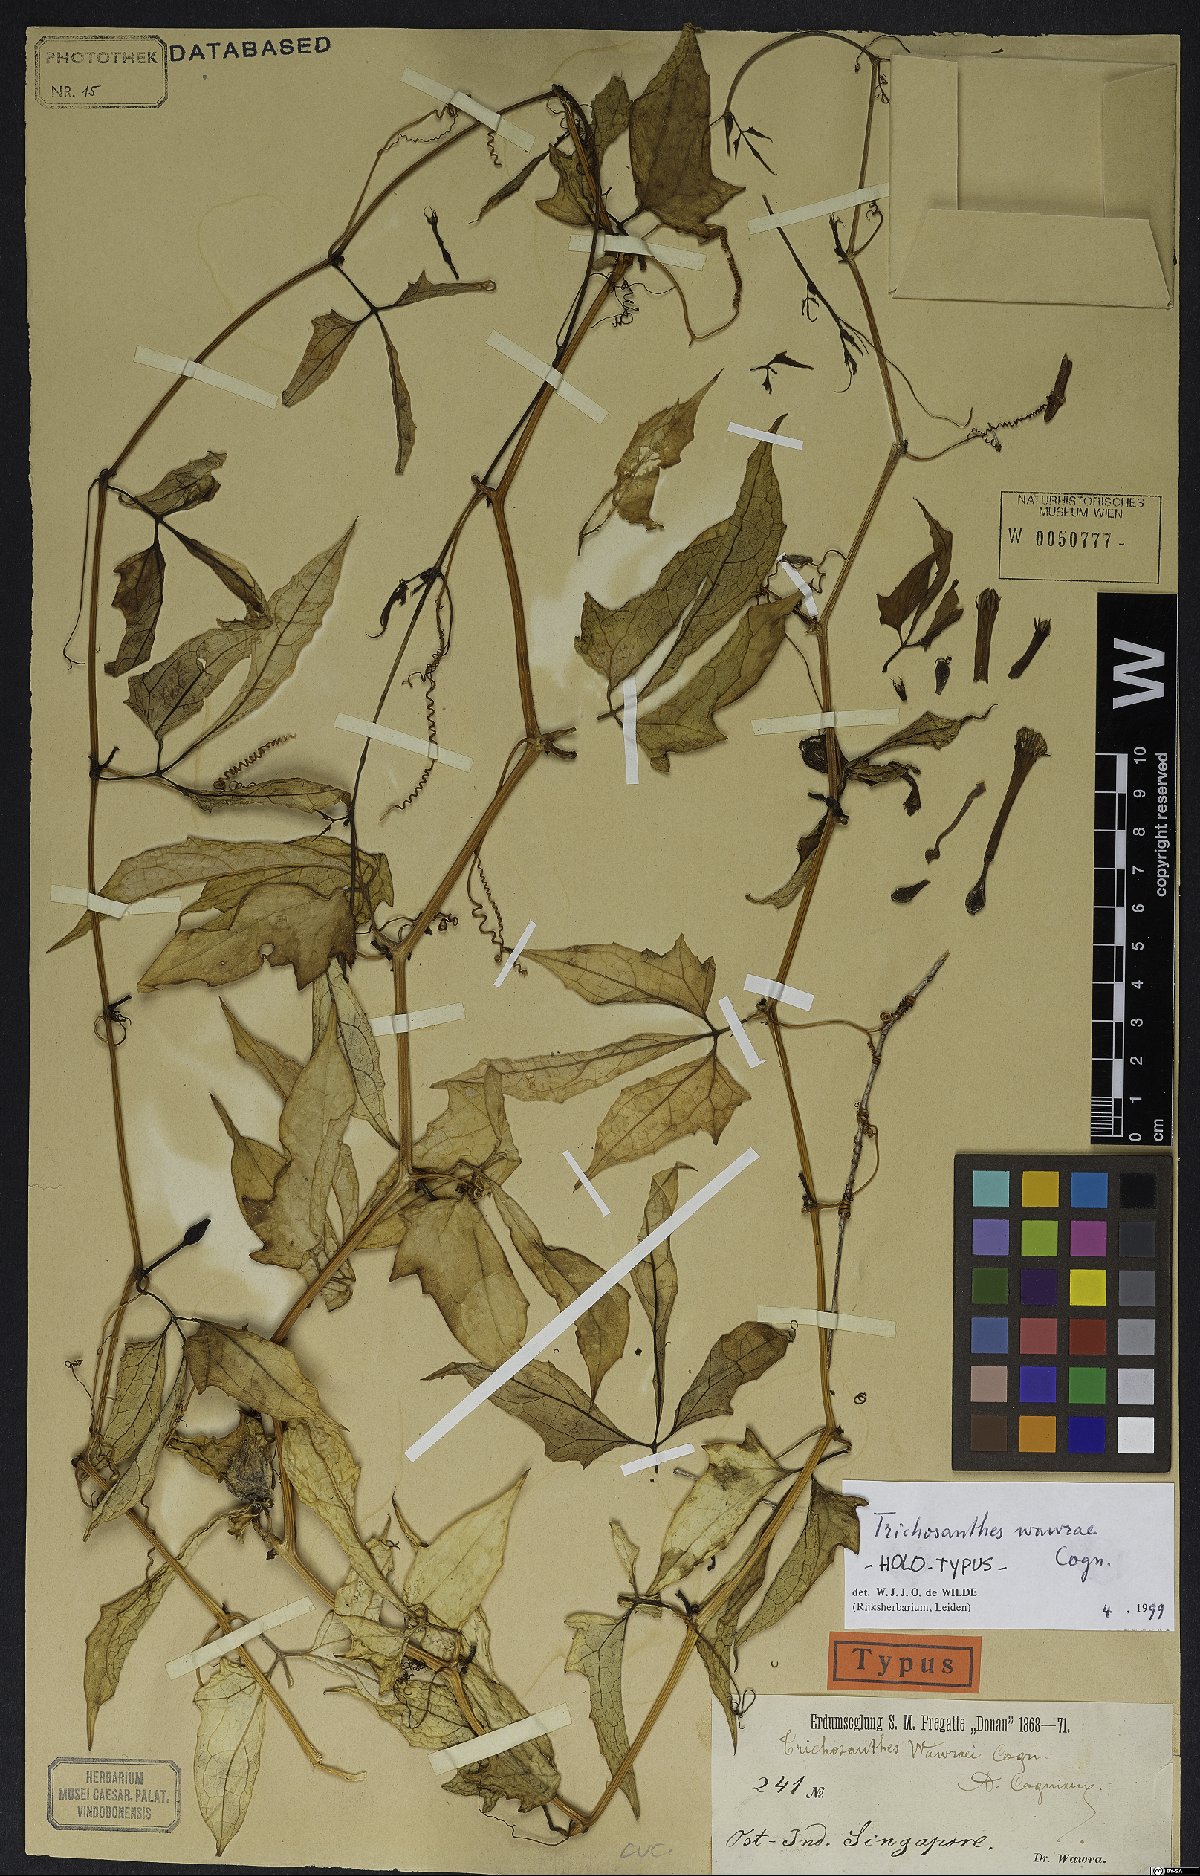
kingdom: Plantae
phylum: Tracheophyta
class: Magnoliopsida
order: Cucurbitales
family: Cucurbitaceae
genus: Trichosanthes
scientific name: Trichosanthes wawrae
